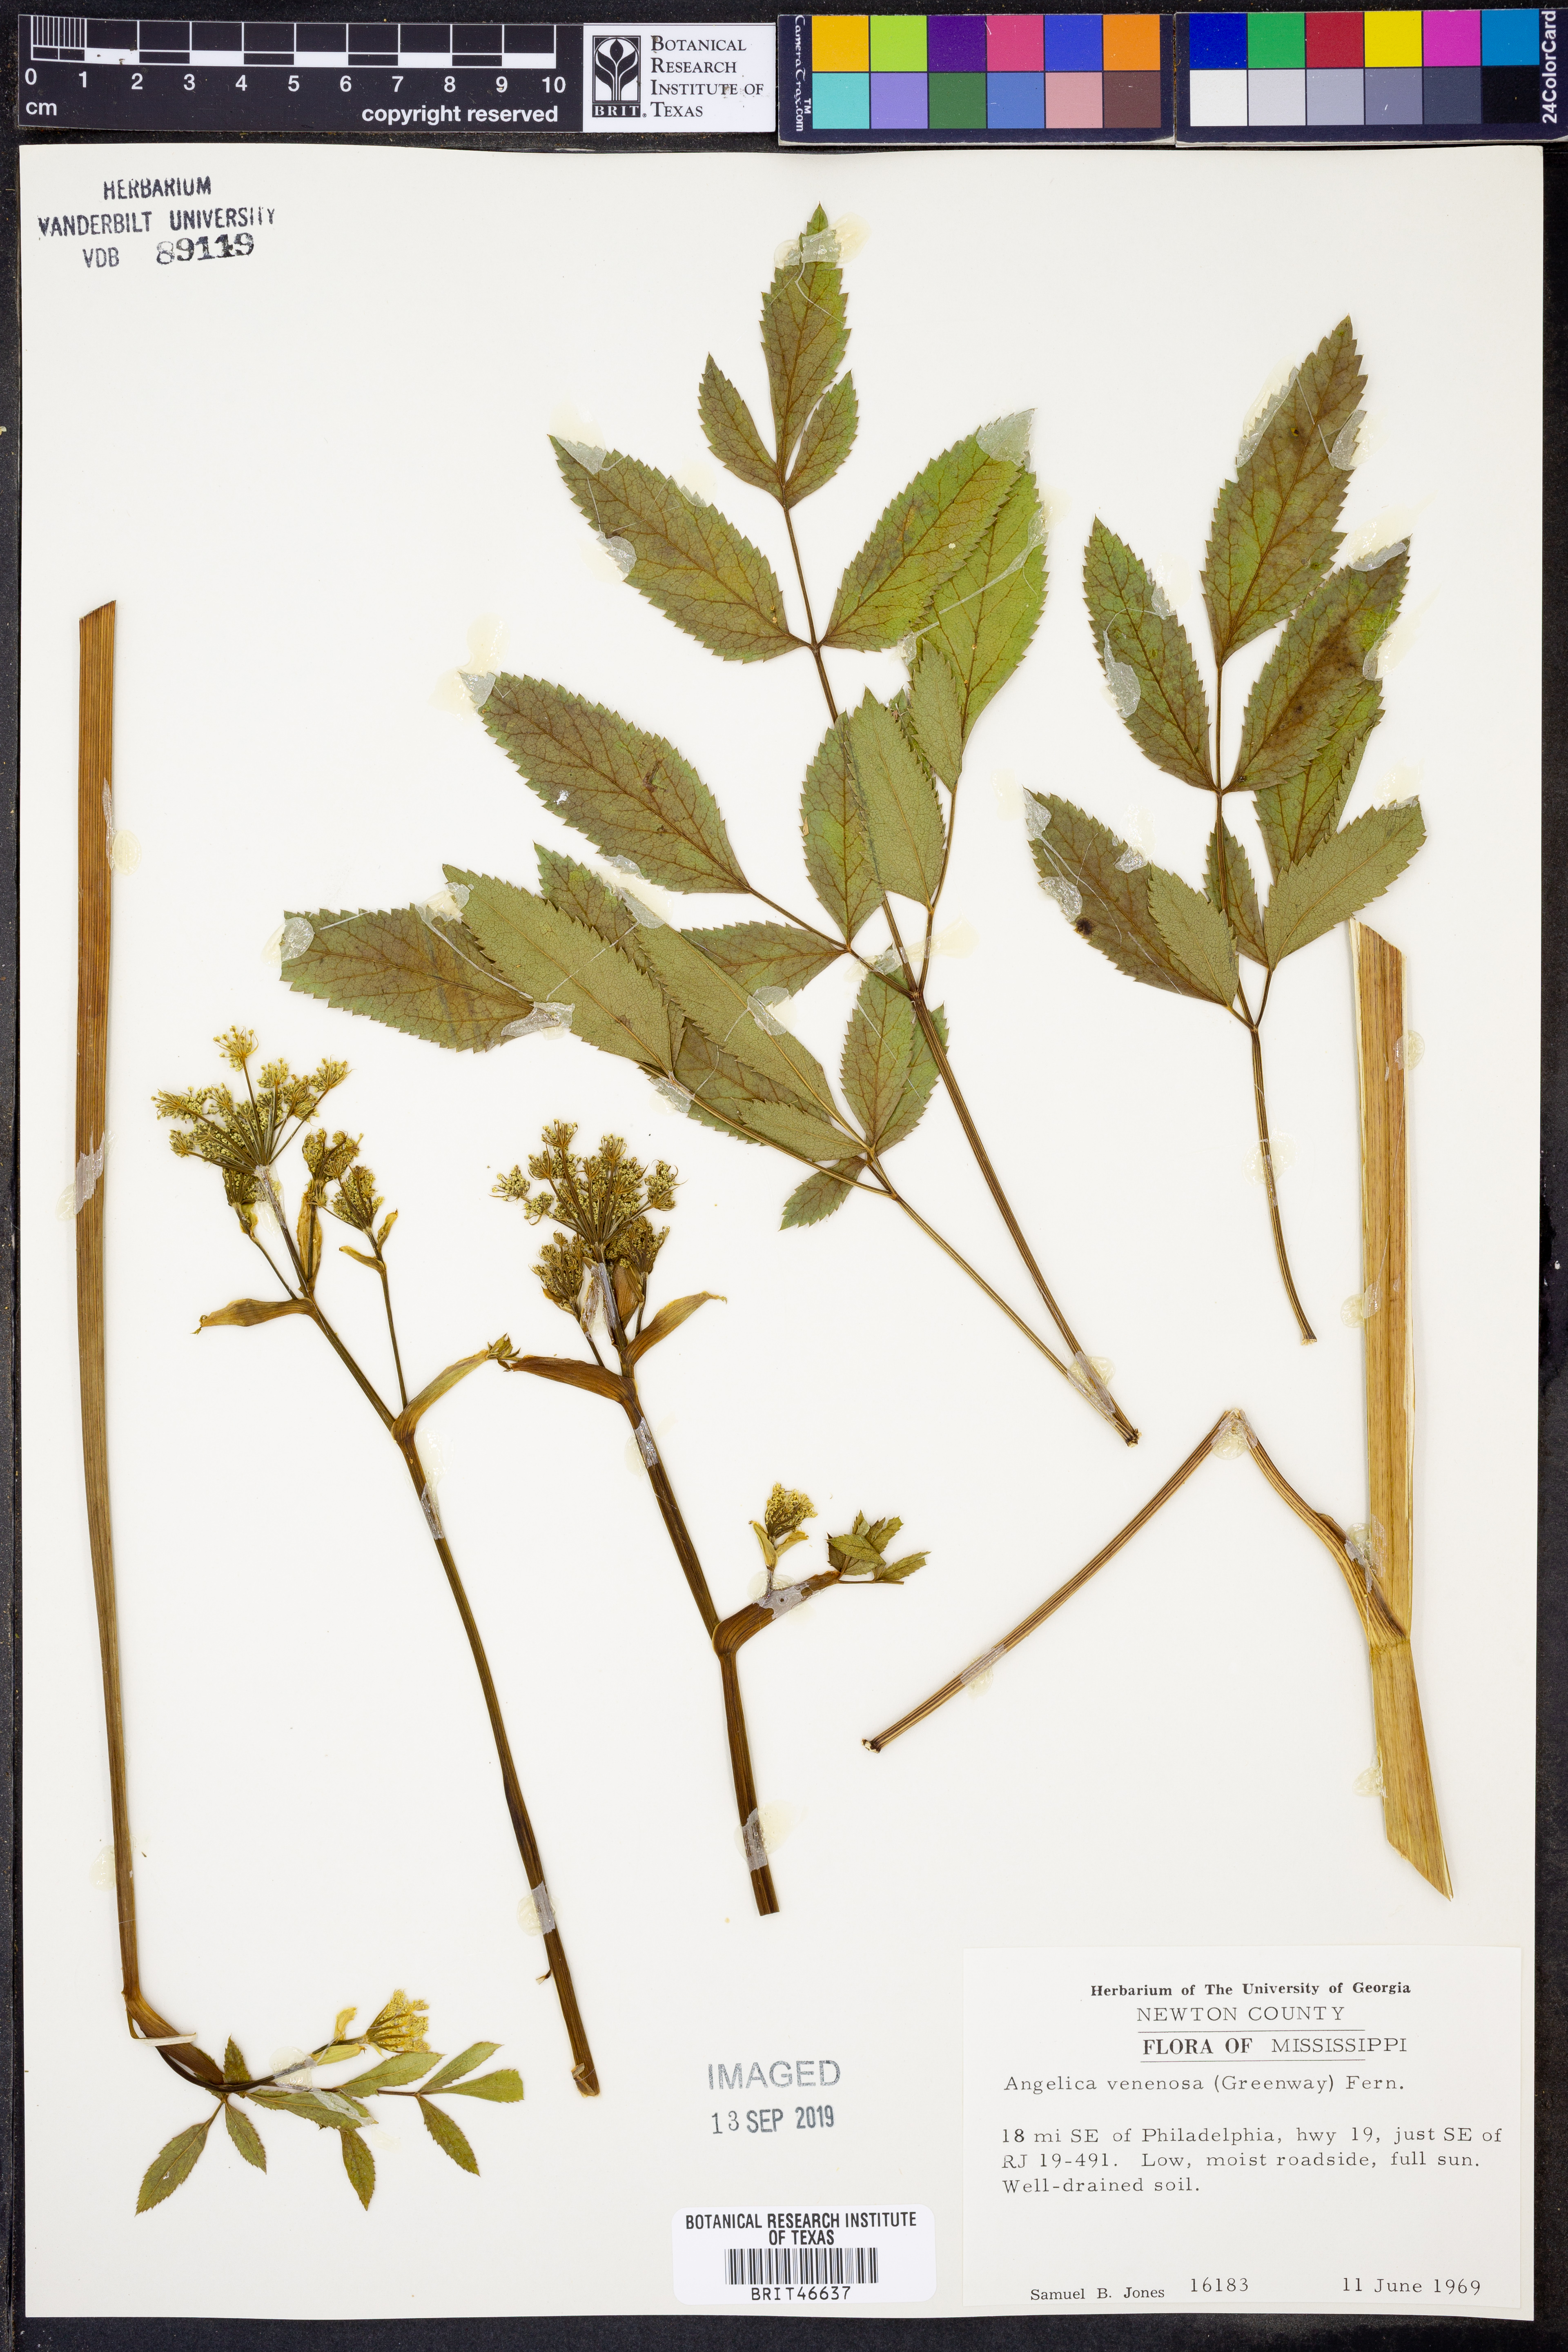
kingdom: Plantae
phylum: Tracheophyta
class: Magnoliopsida
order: Apiales
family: Apiaceae
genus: Angelica
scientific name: Angelica venenosa
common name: Hairy angelica
